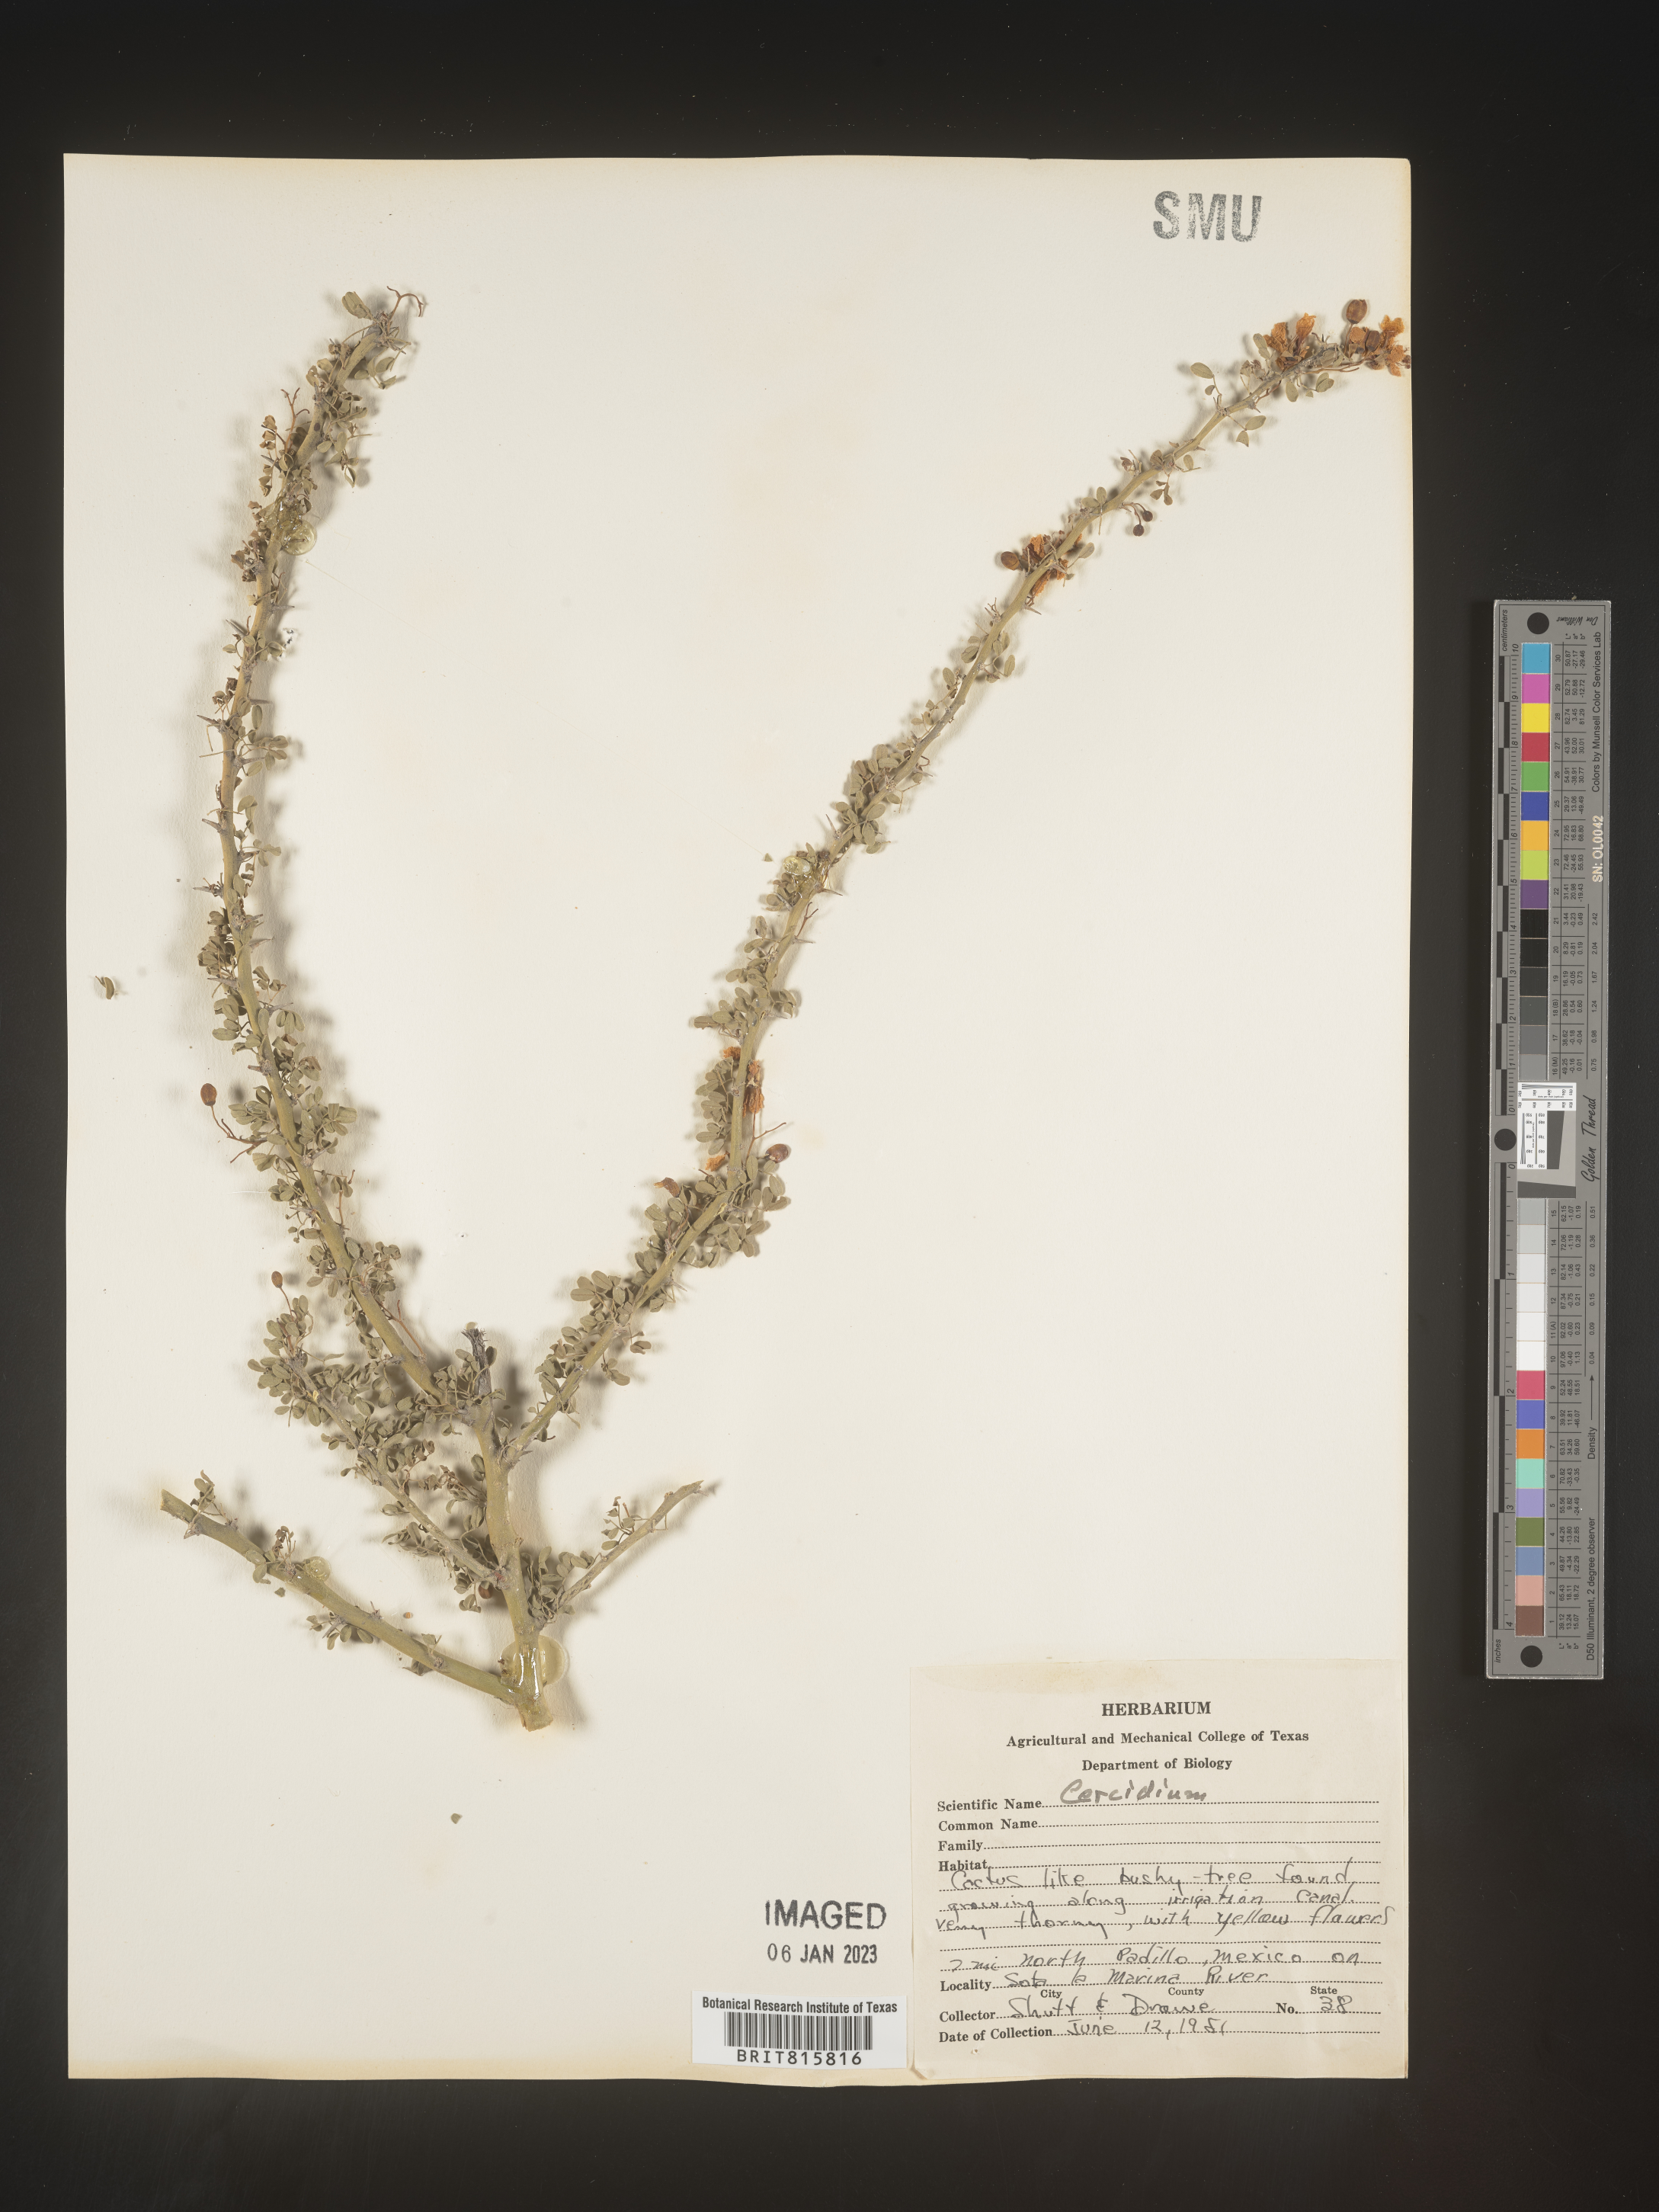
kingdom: Plantae
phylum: Chlorophyta
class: Chlorophyceae
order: Volvocales
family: Chlamydomonadaceae
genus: Cercidium
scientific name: Cercidium
